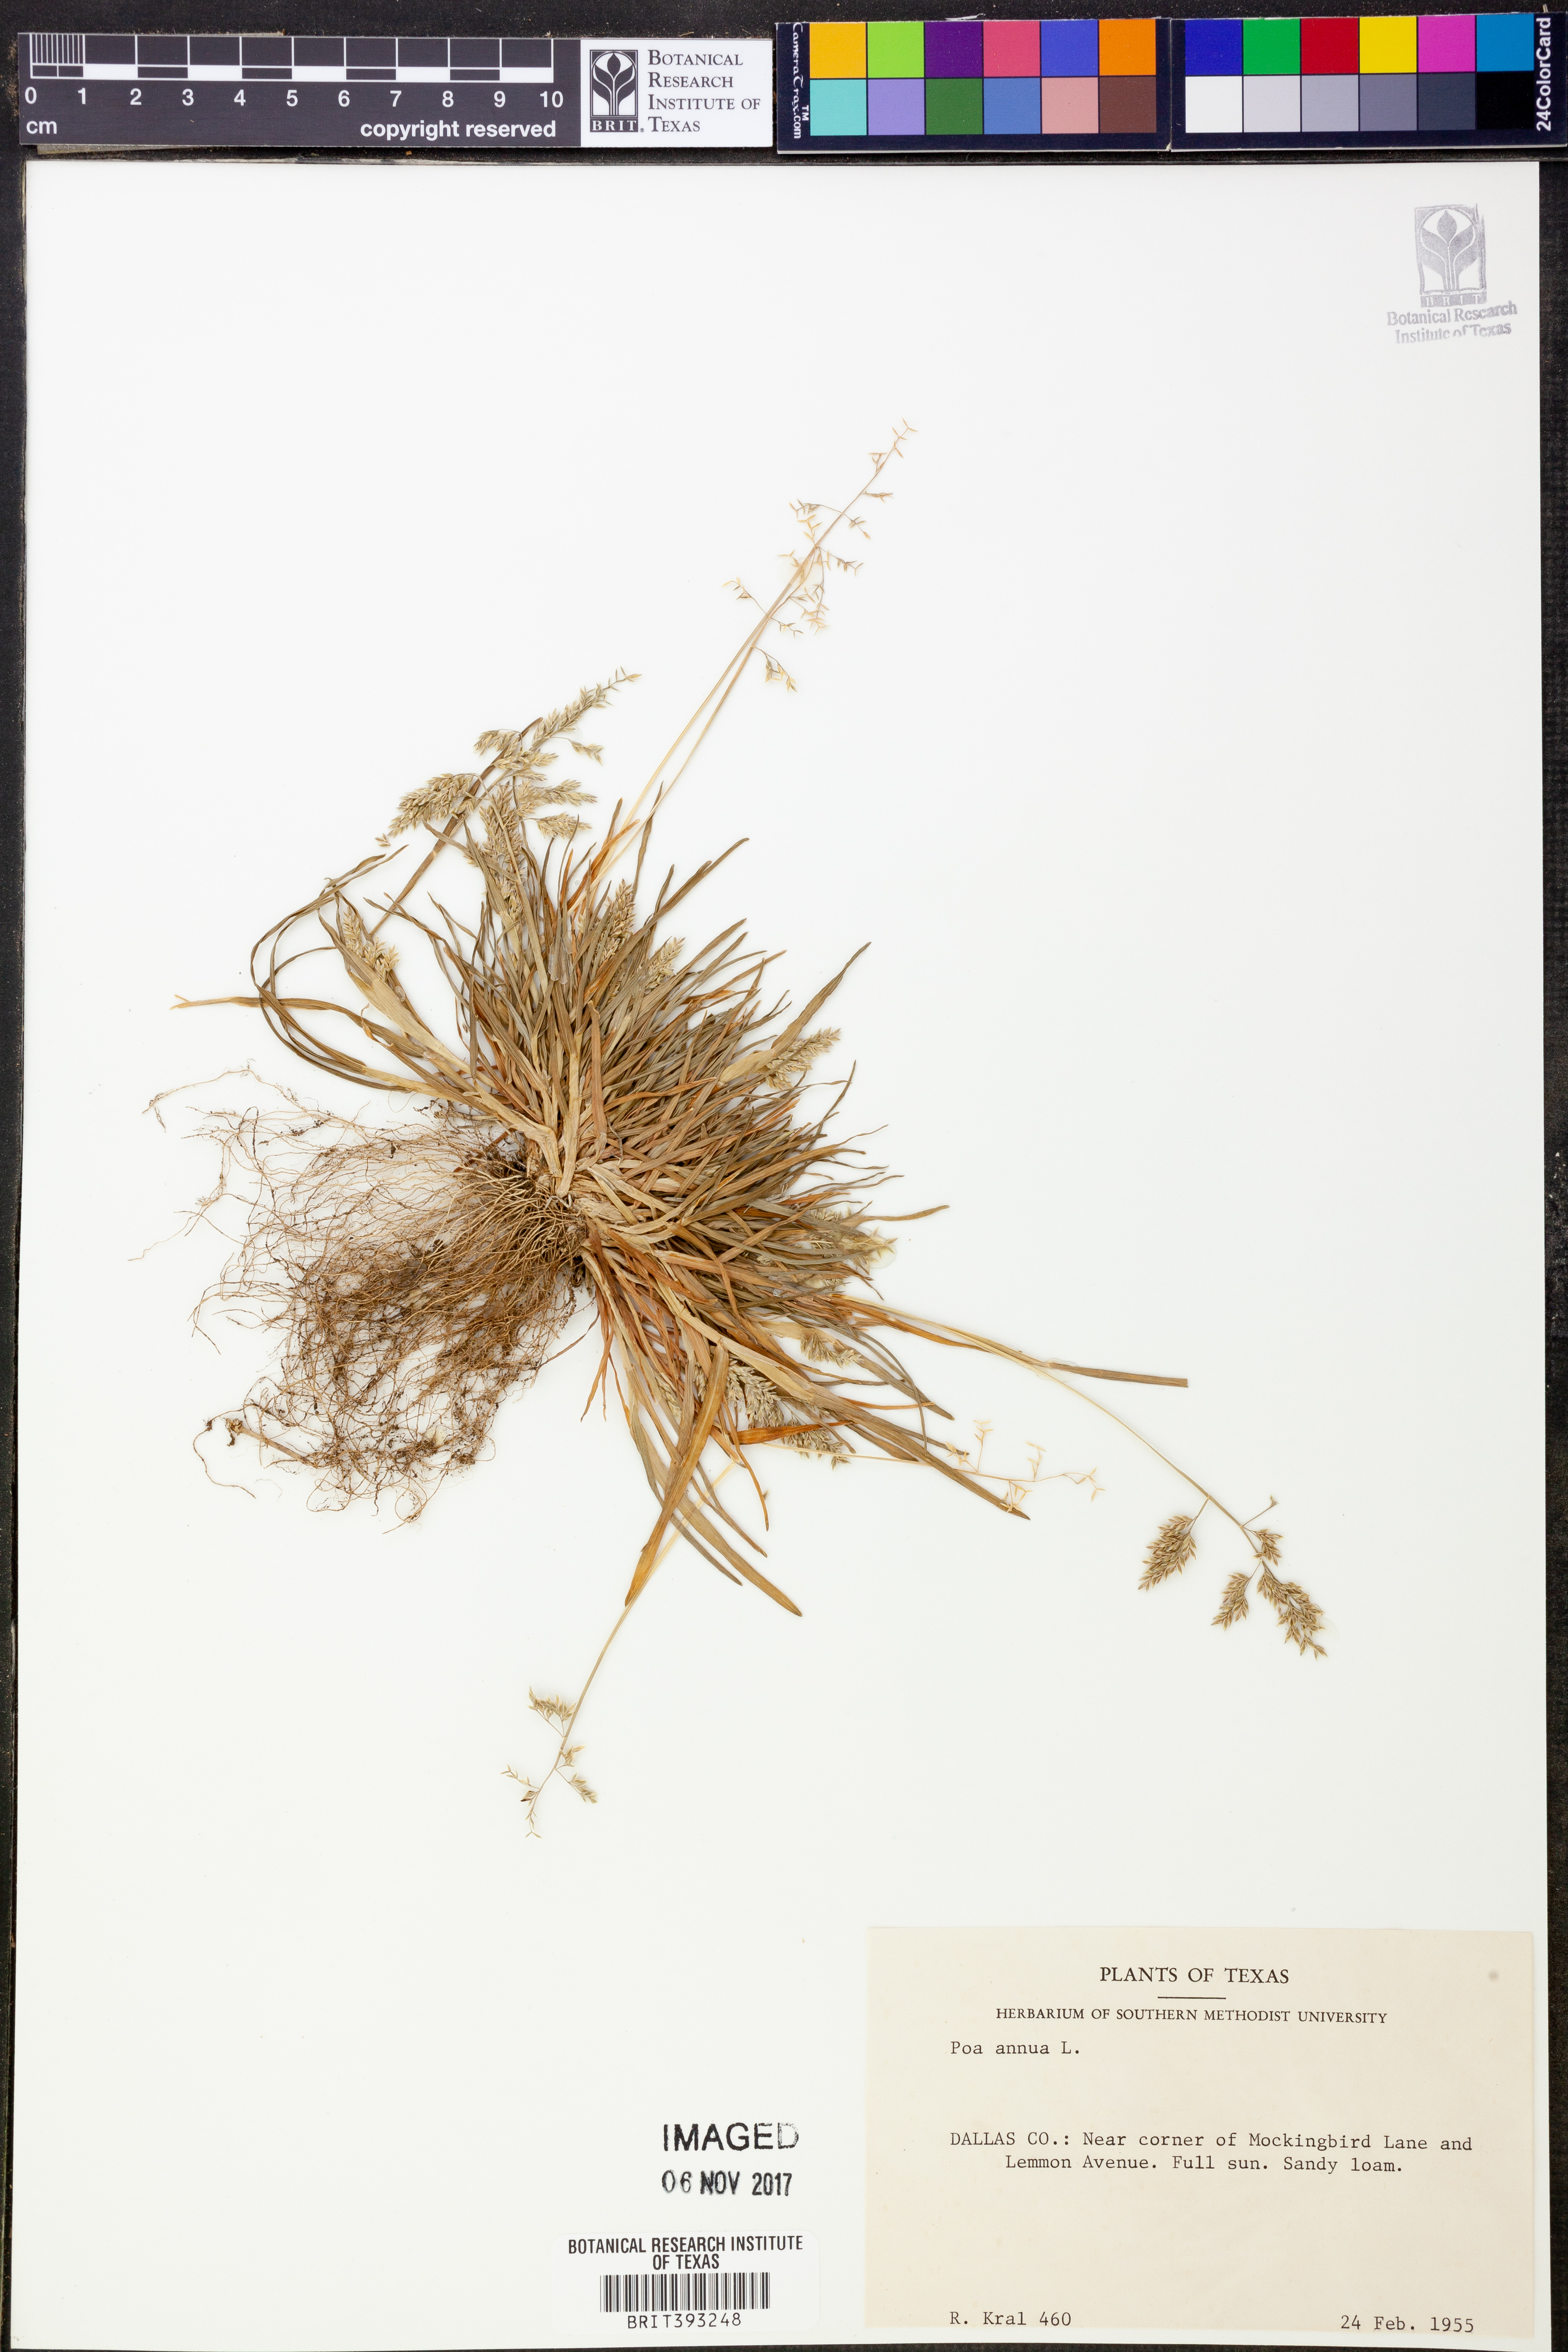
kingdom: Plantae
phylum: Tracheophyta
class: Liliopsida
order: Poales
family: Poaceae
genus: Poa
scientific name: Poa annua
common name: Annual bluegrass
